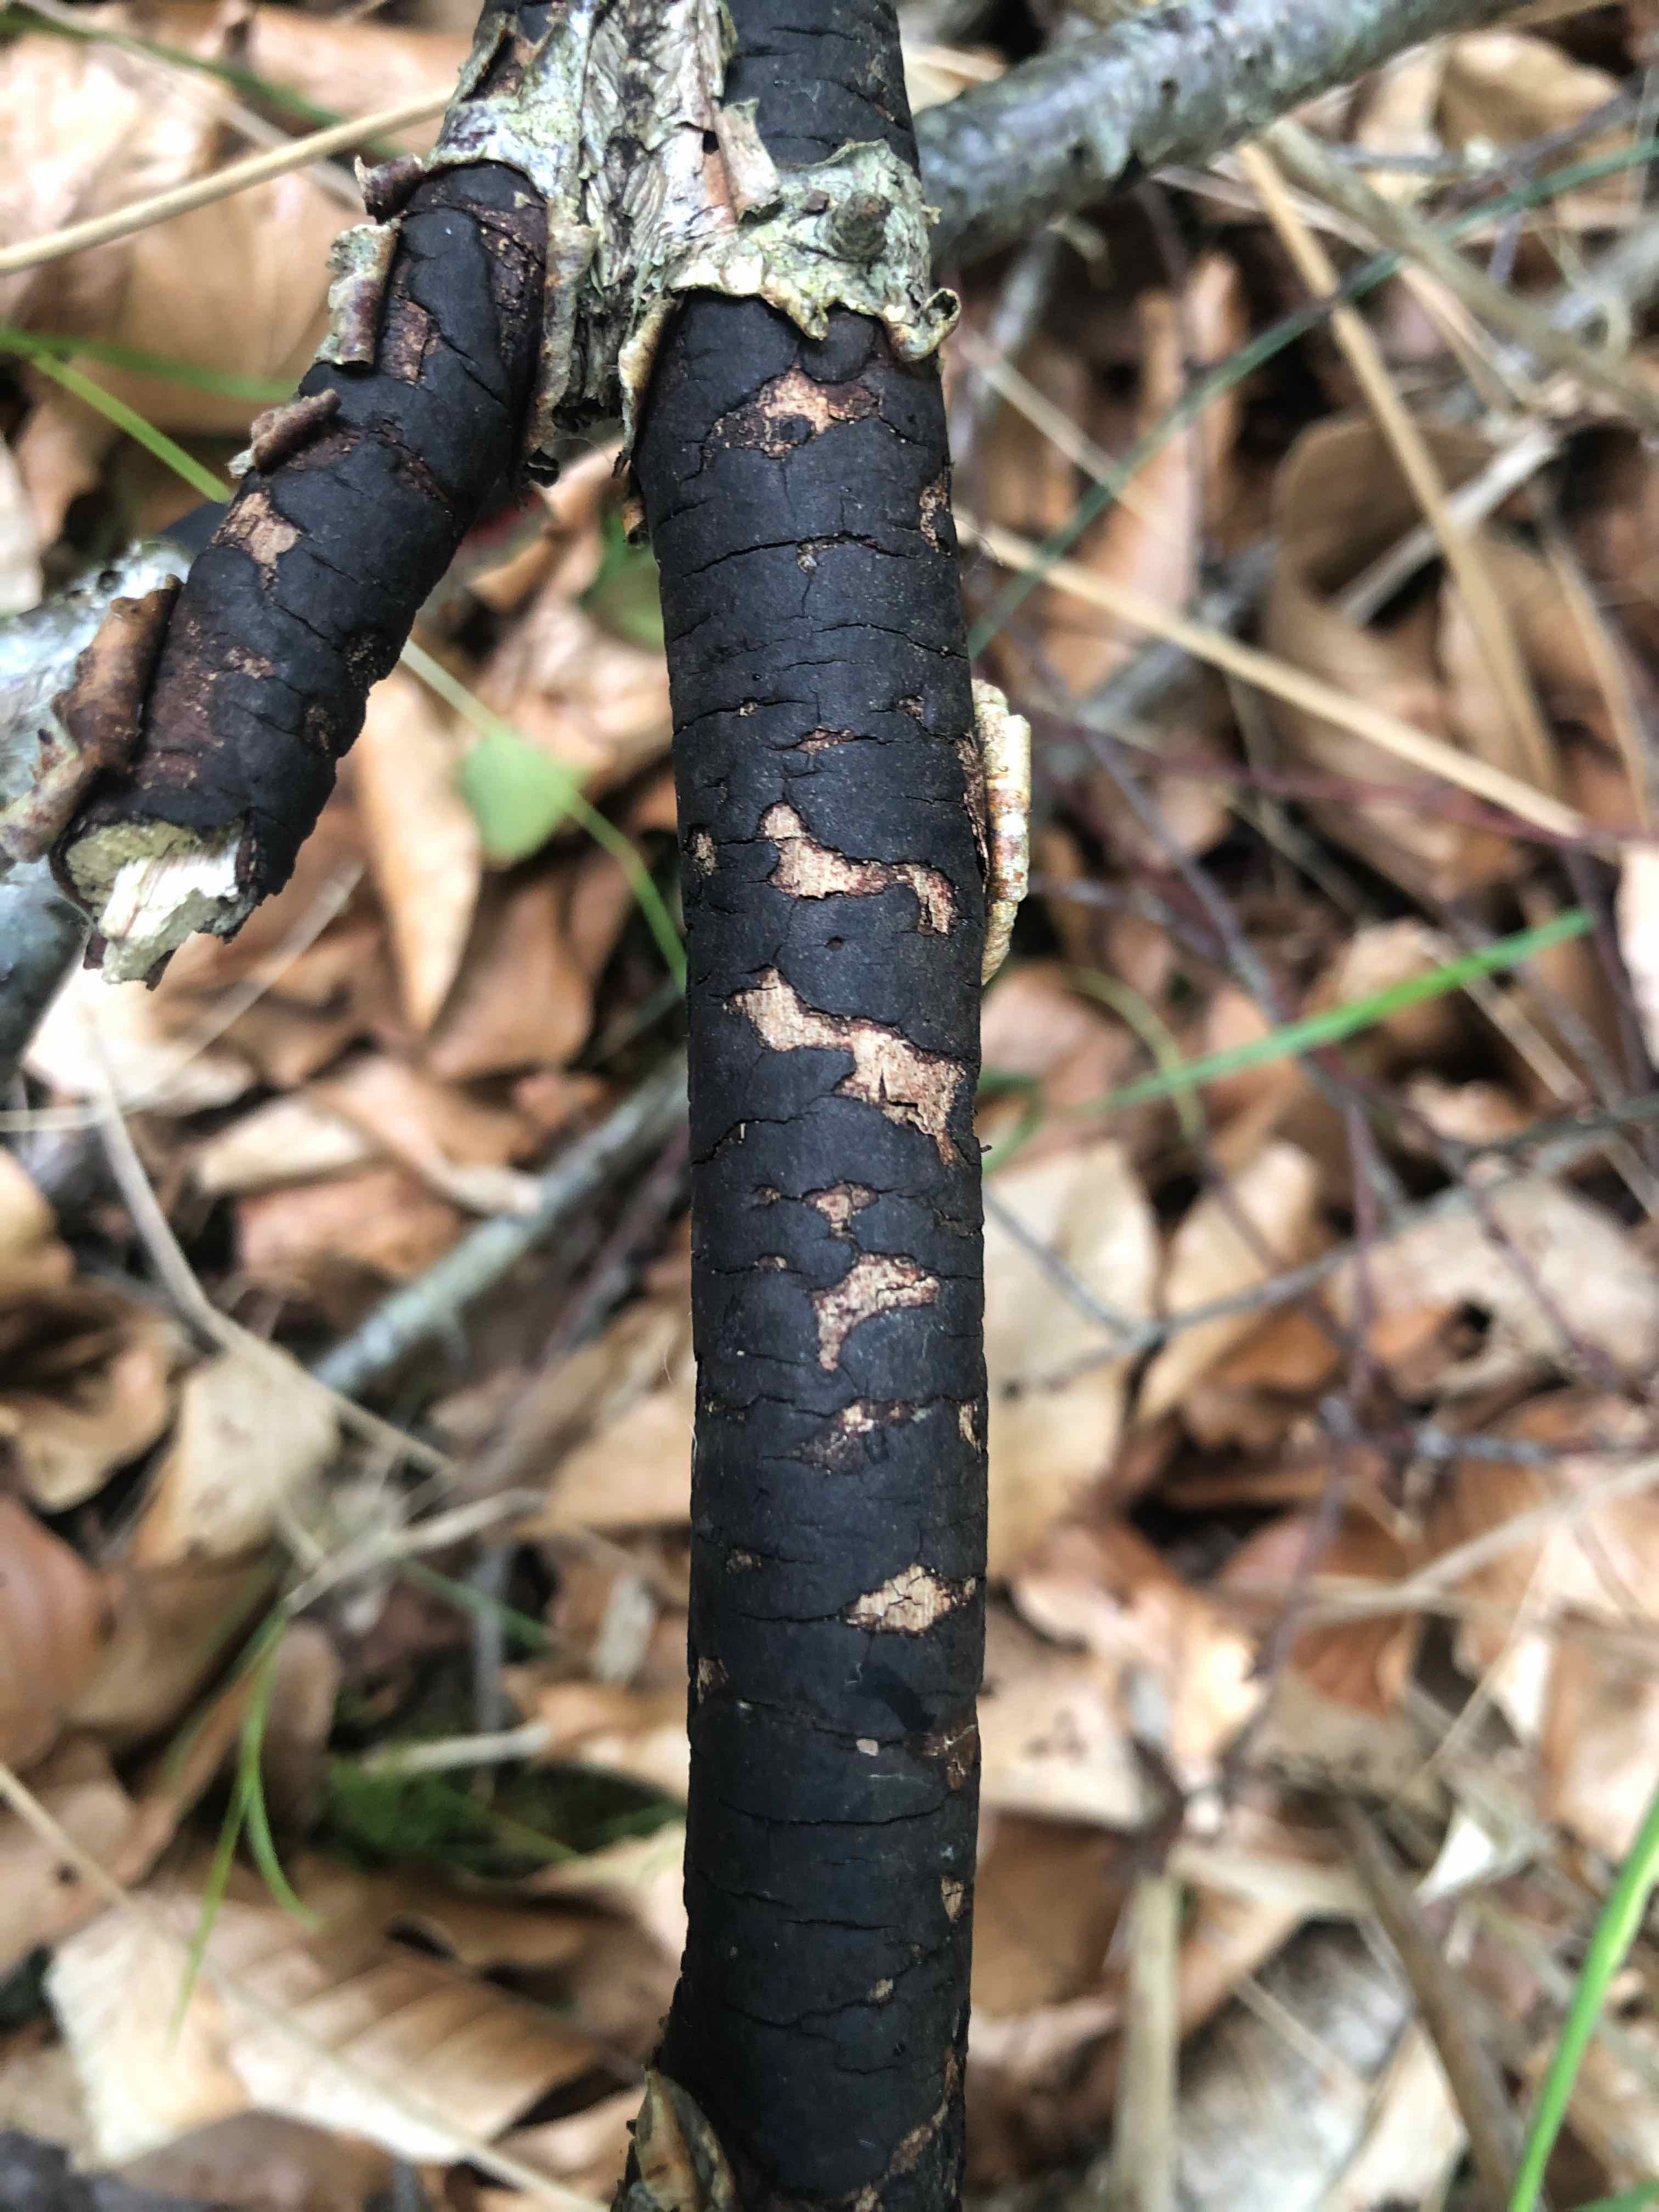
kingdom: Fungi
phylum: Ascomycota
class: Sordariomycetes
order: Xylariales
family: Diatrypaceae
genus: Diatrype
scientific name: Diatrype decorticata
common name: barksprænger-kulskorpe
